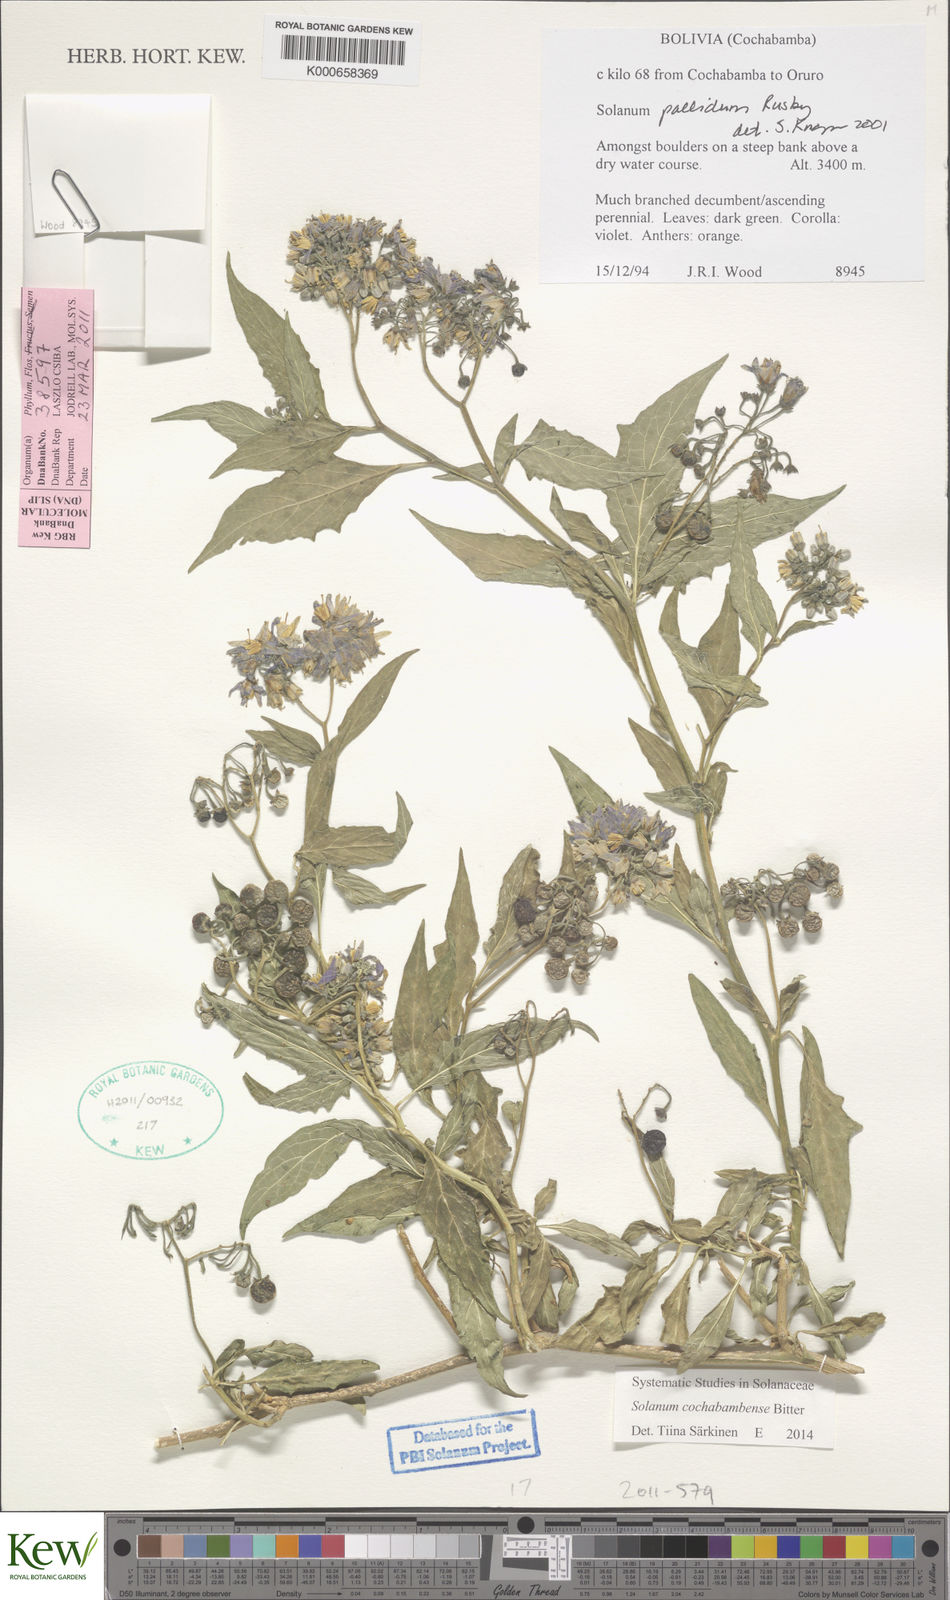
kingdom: Plantae
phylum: Tracheophyta
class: Magnoliopsida
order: Solanales
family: Solanaceae
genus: Solanum
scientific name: Solanum aloysiifolium
